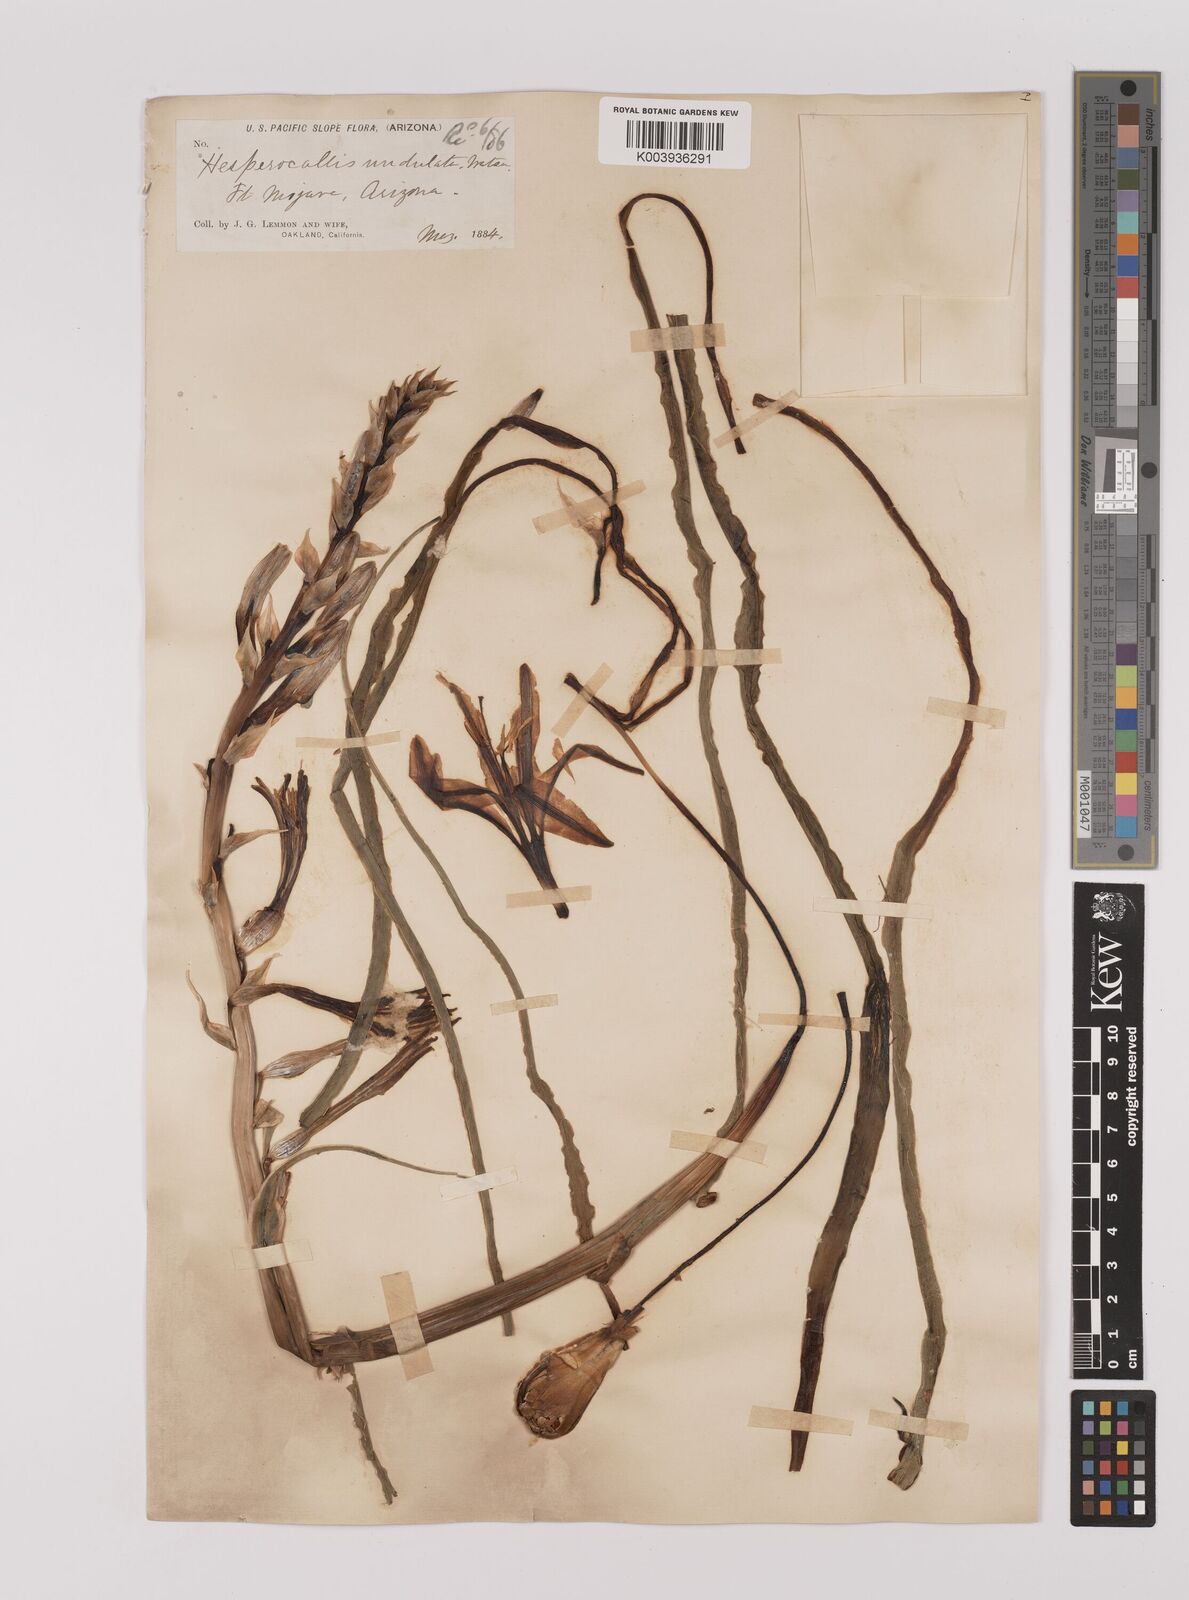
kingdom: Plantae
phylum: Tracheophyta
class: Liliopsida
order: Asparagales
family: Asparagaceae
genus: Hesperocallis
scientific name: Hesperocallis
